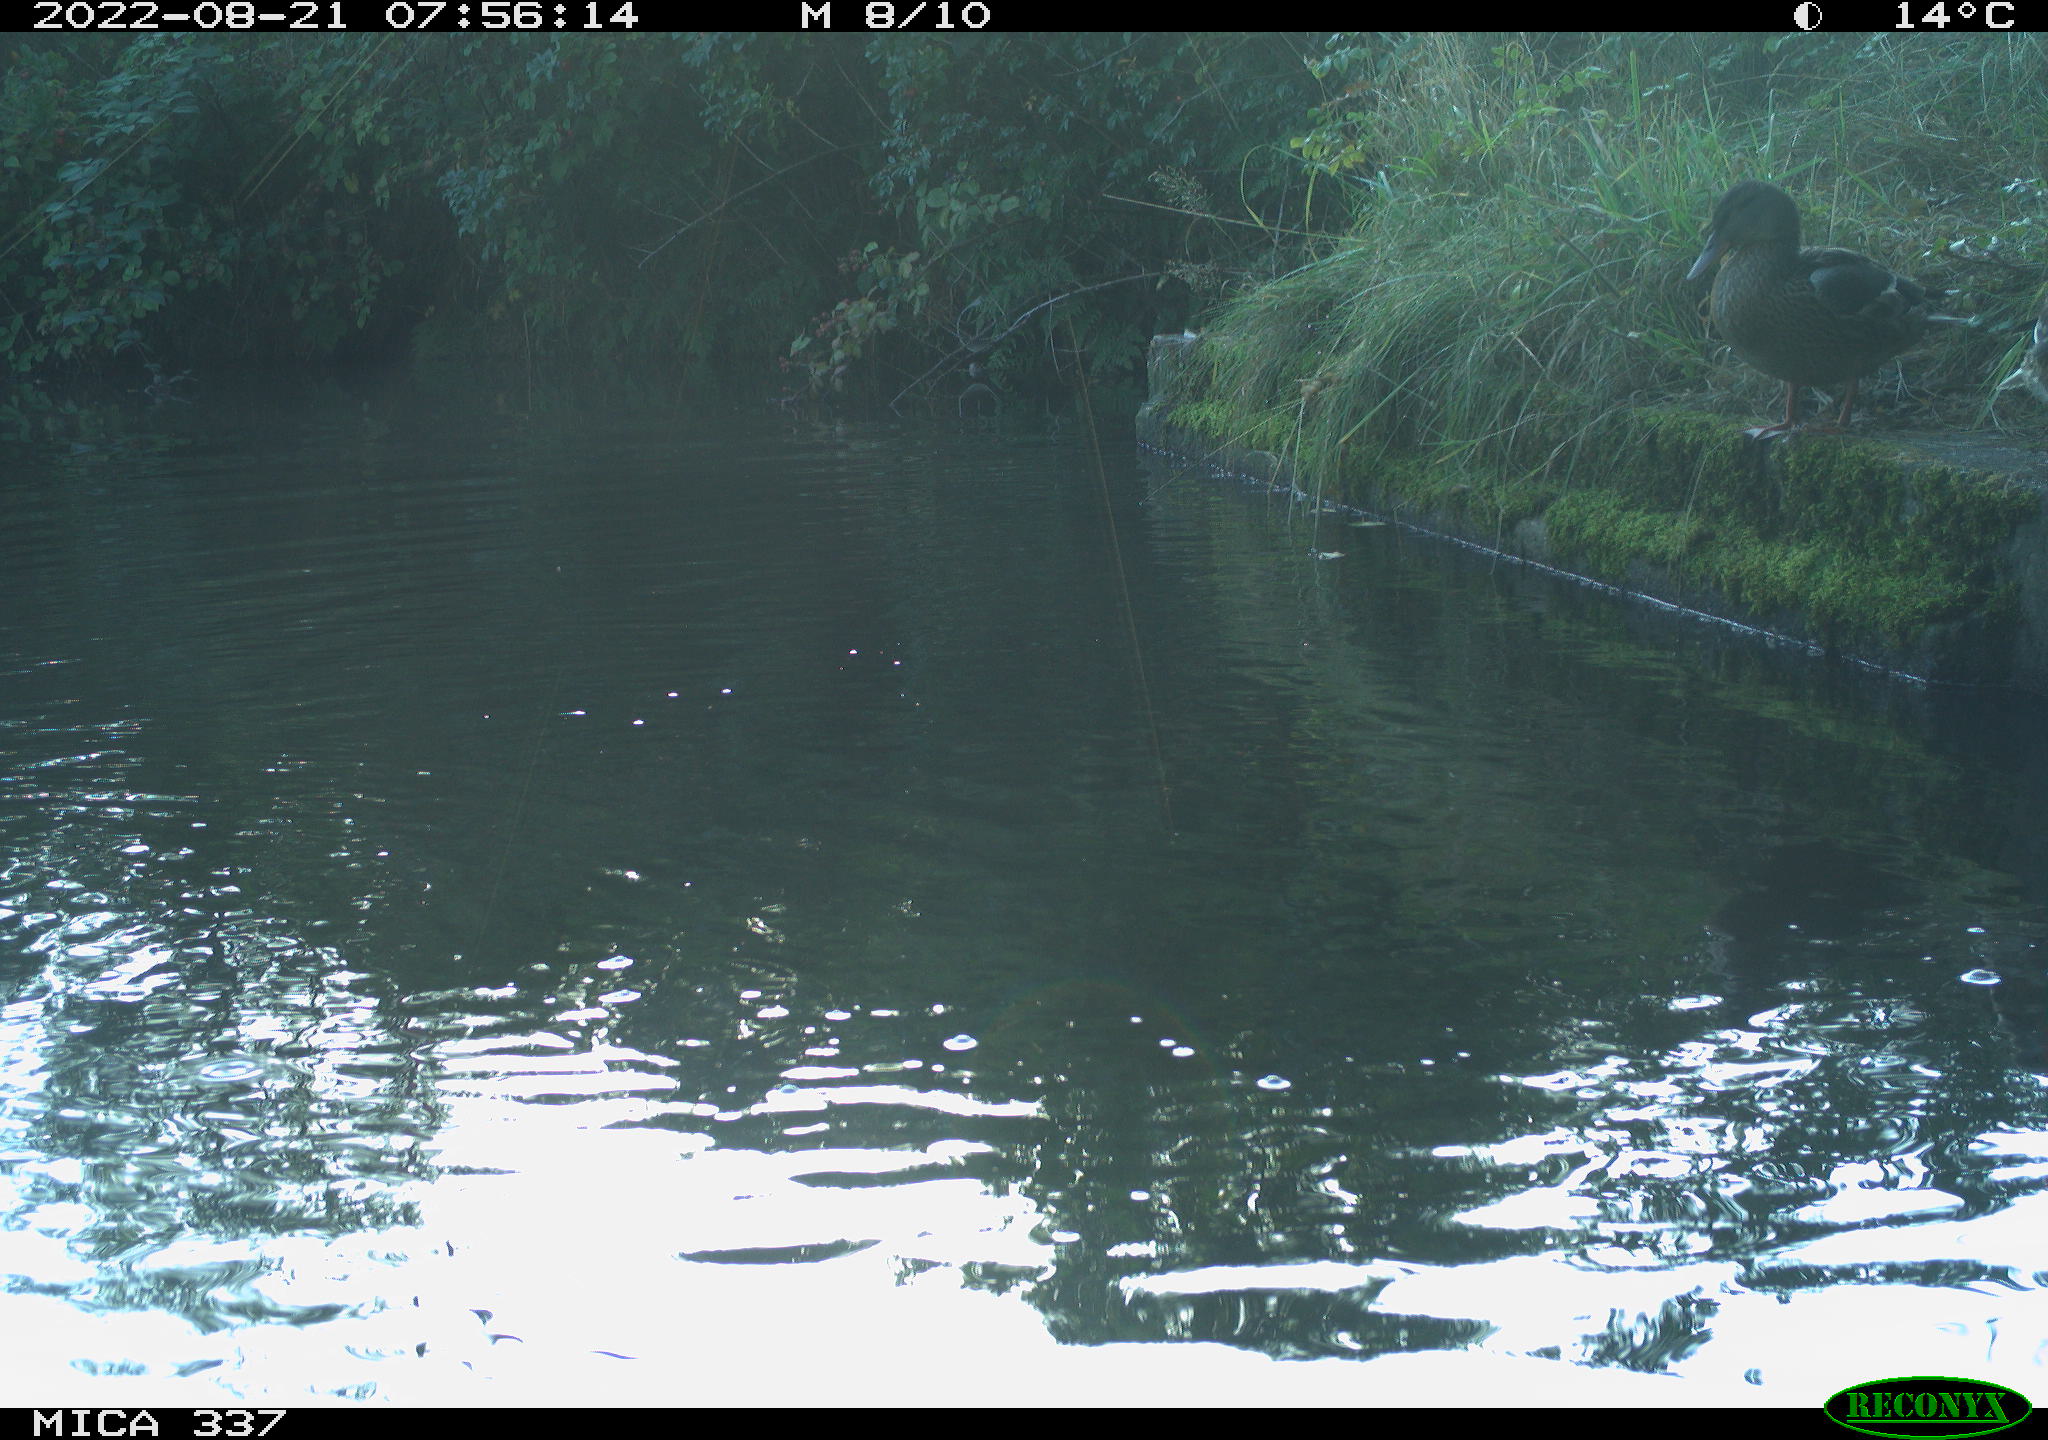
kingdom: Animalia
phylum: Chordata
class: Aves
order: Anseriformes
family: Anatidae
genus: Anas
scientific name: Anas platyrhynchos
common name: Mallard
